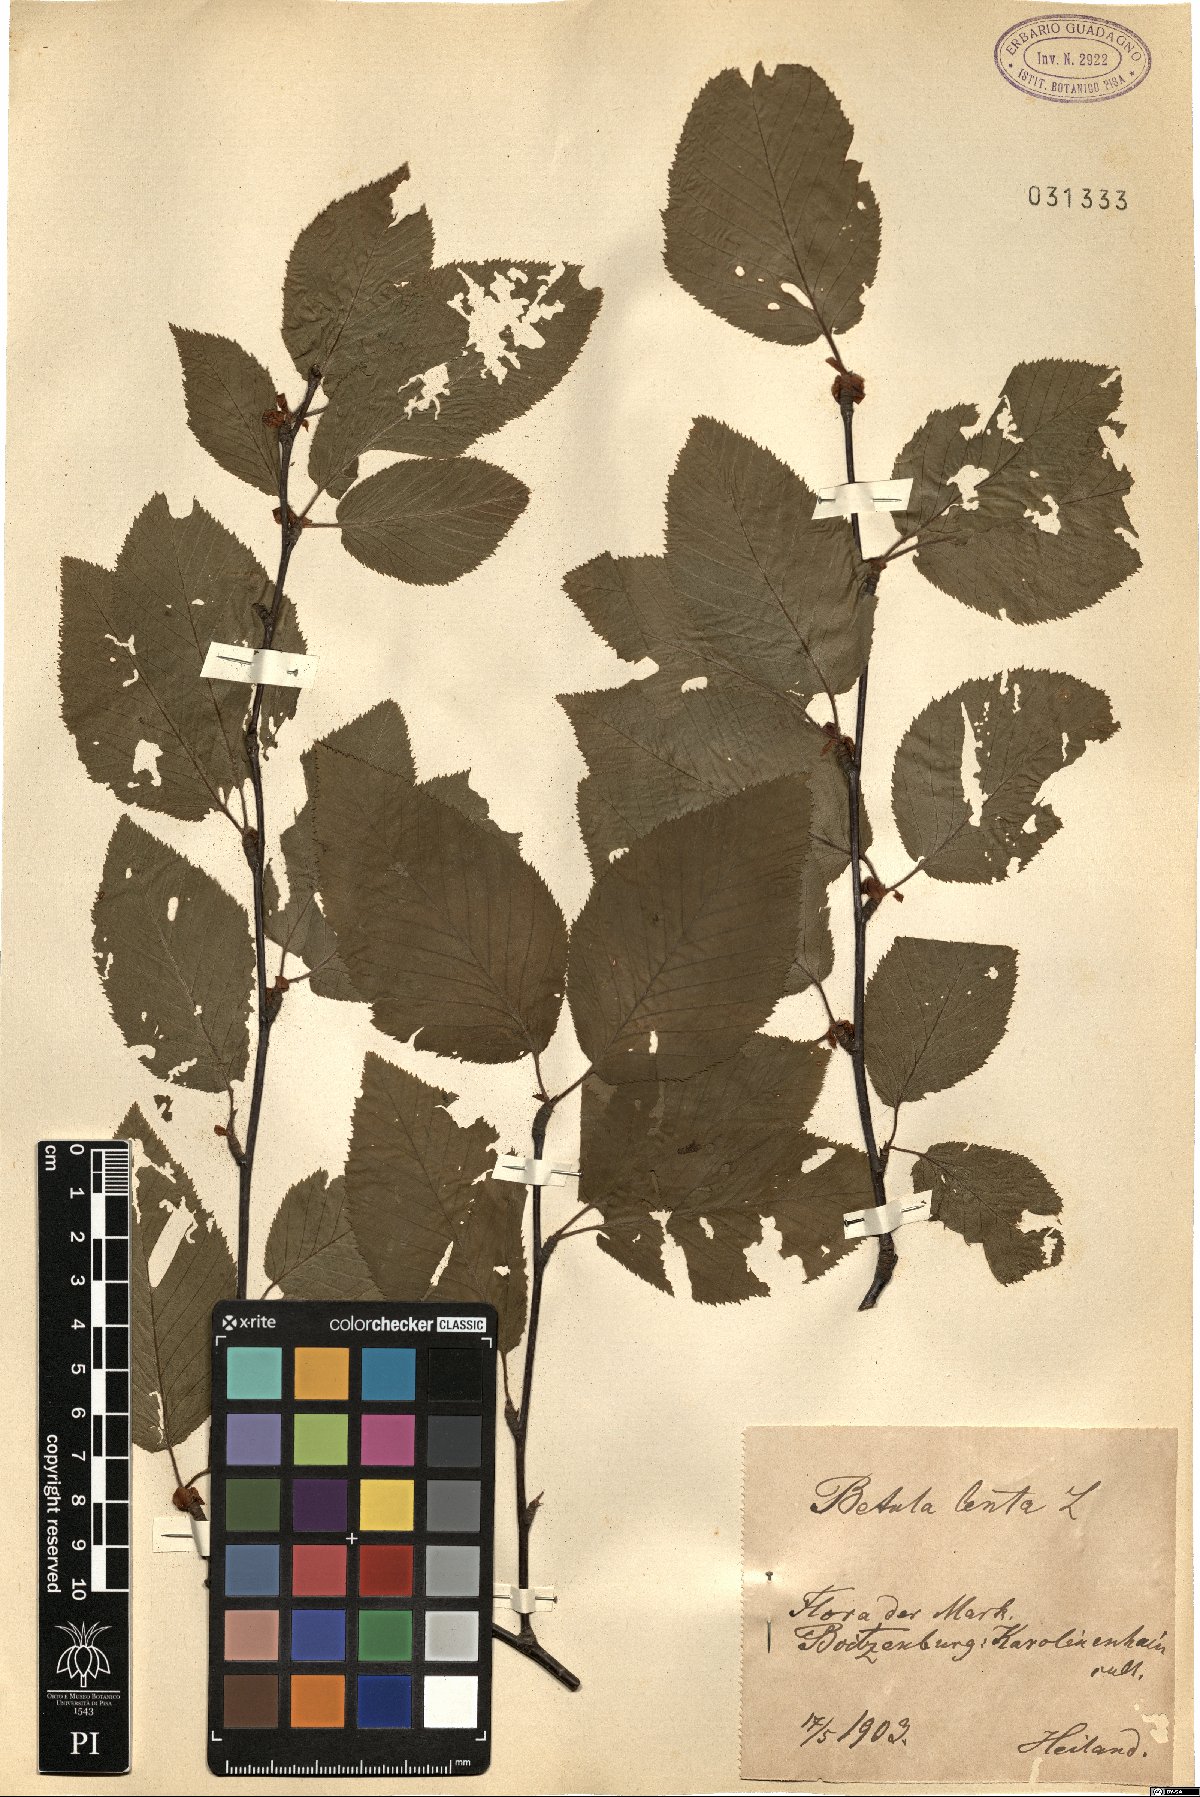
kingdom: Plantae
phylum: Tracheophyta
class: Magnoliopsida
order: Fagales
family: Betulaceae
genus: Betula
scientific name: Betula lenta
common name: Black birch
